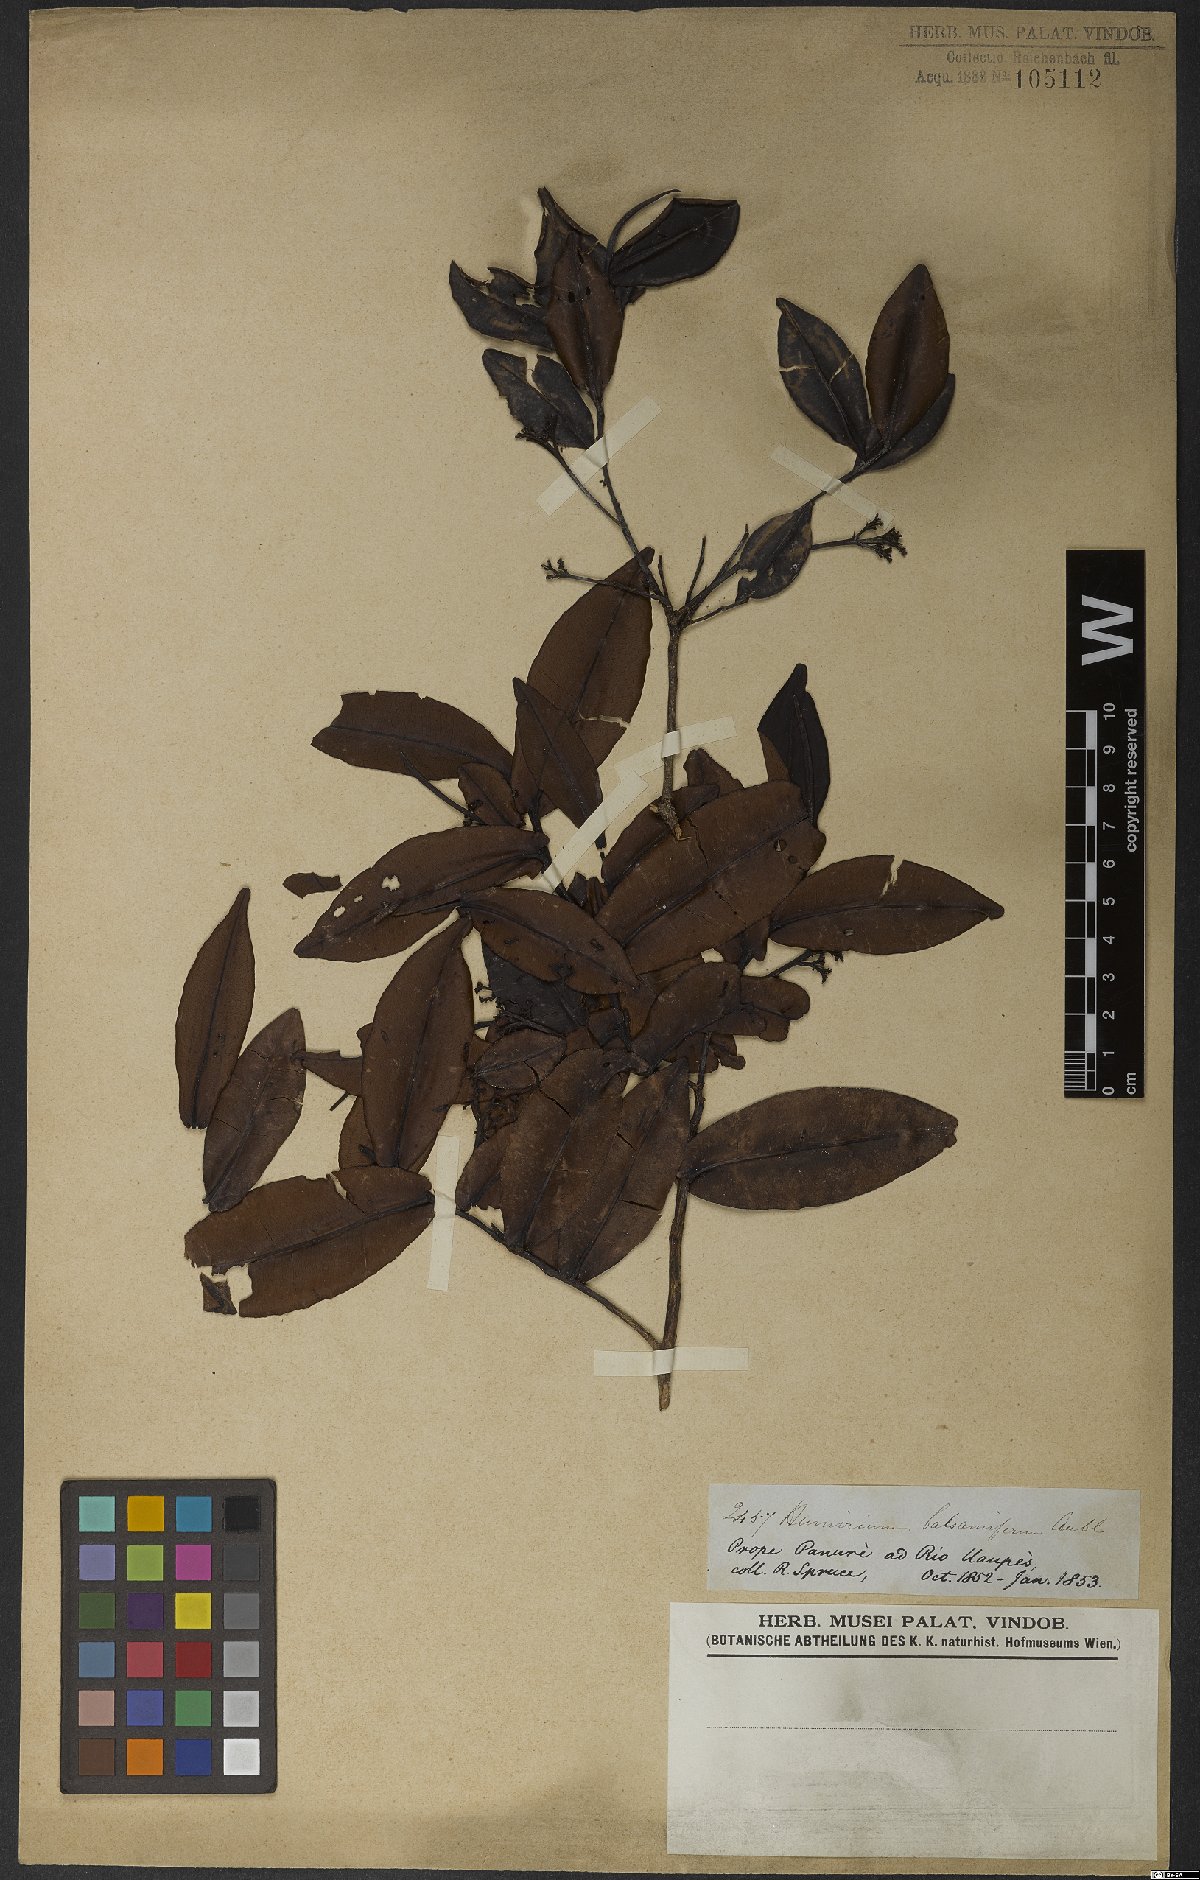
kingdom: Plantae
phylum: Tracheophyta
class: Magnoliopsida
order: Malpighiales
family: Humiriaceae
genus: Humiria
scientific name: Humiria balsamifera
